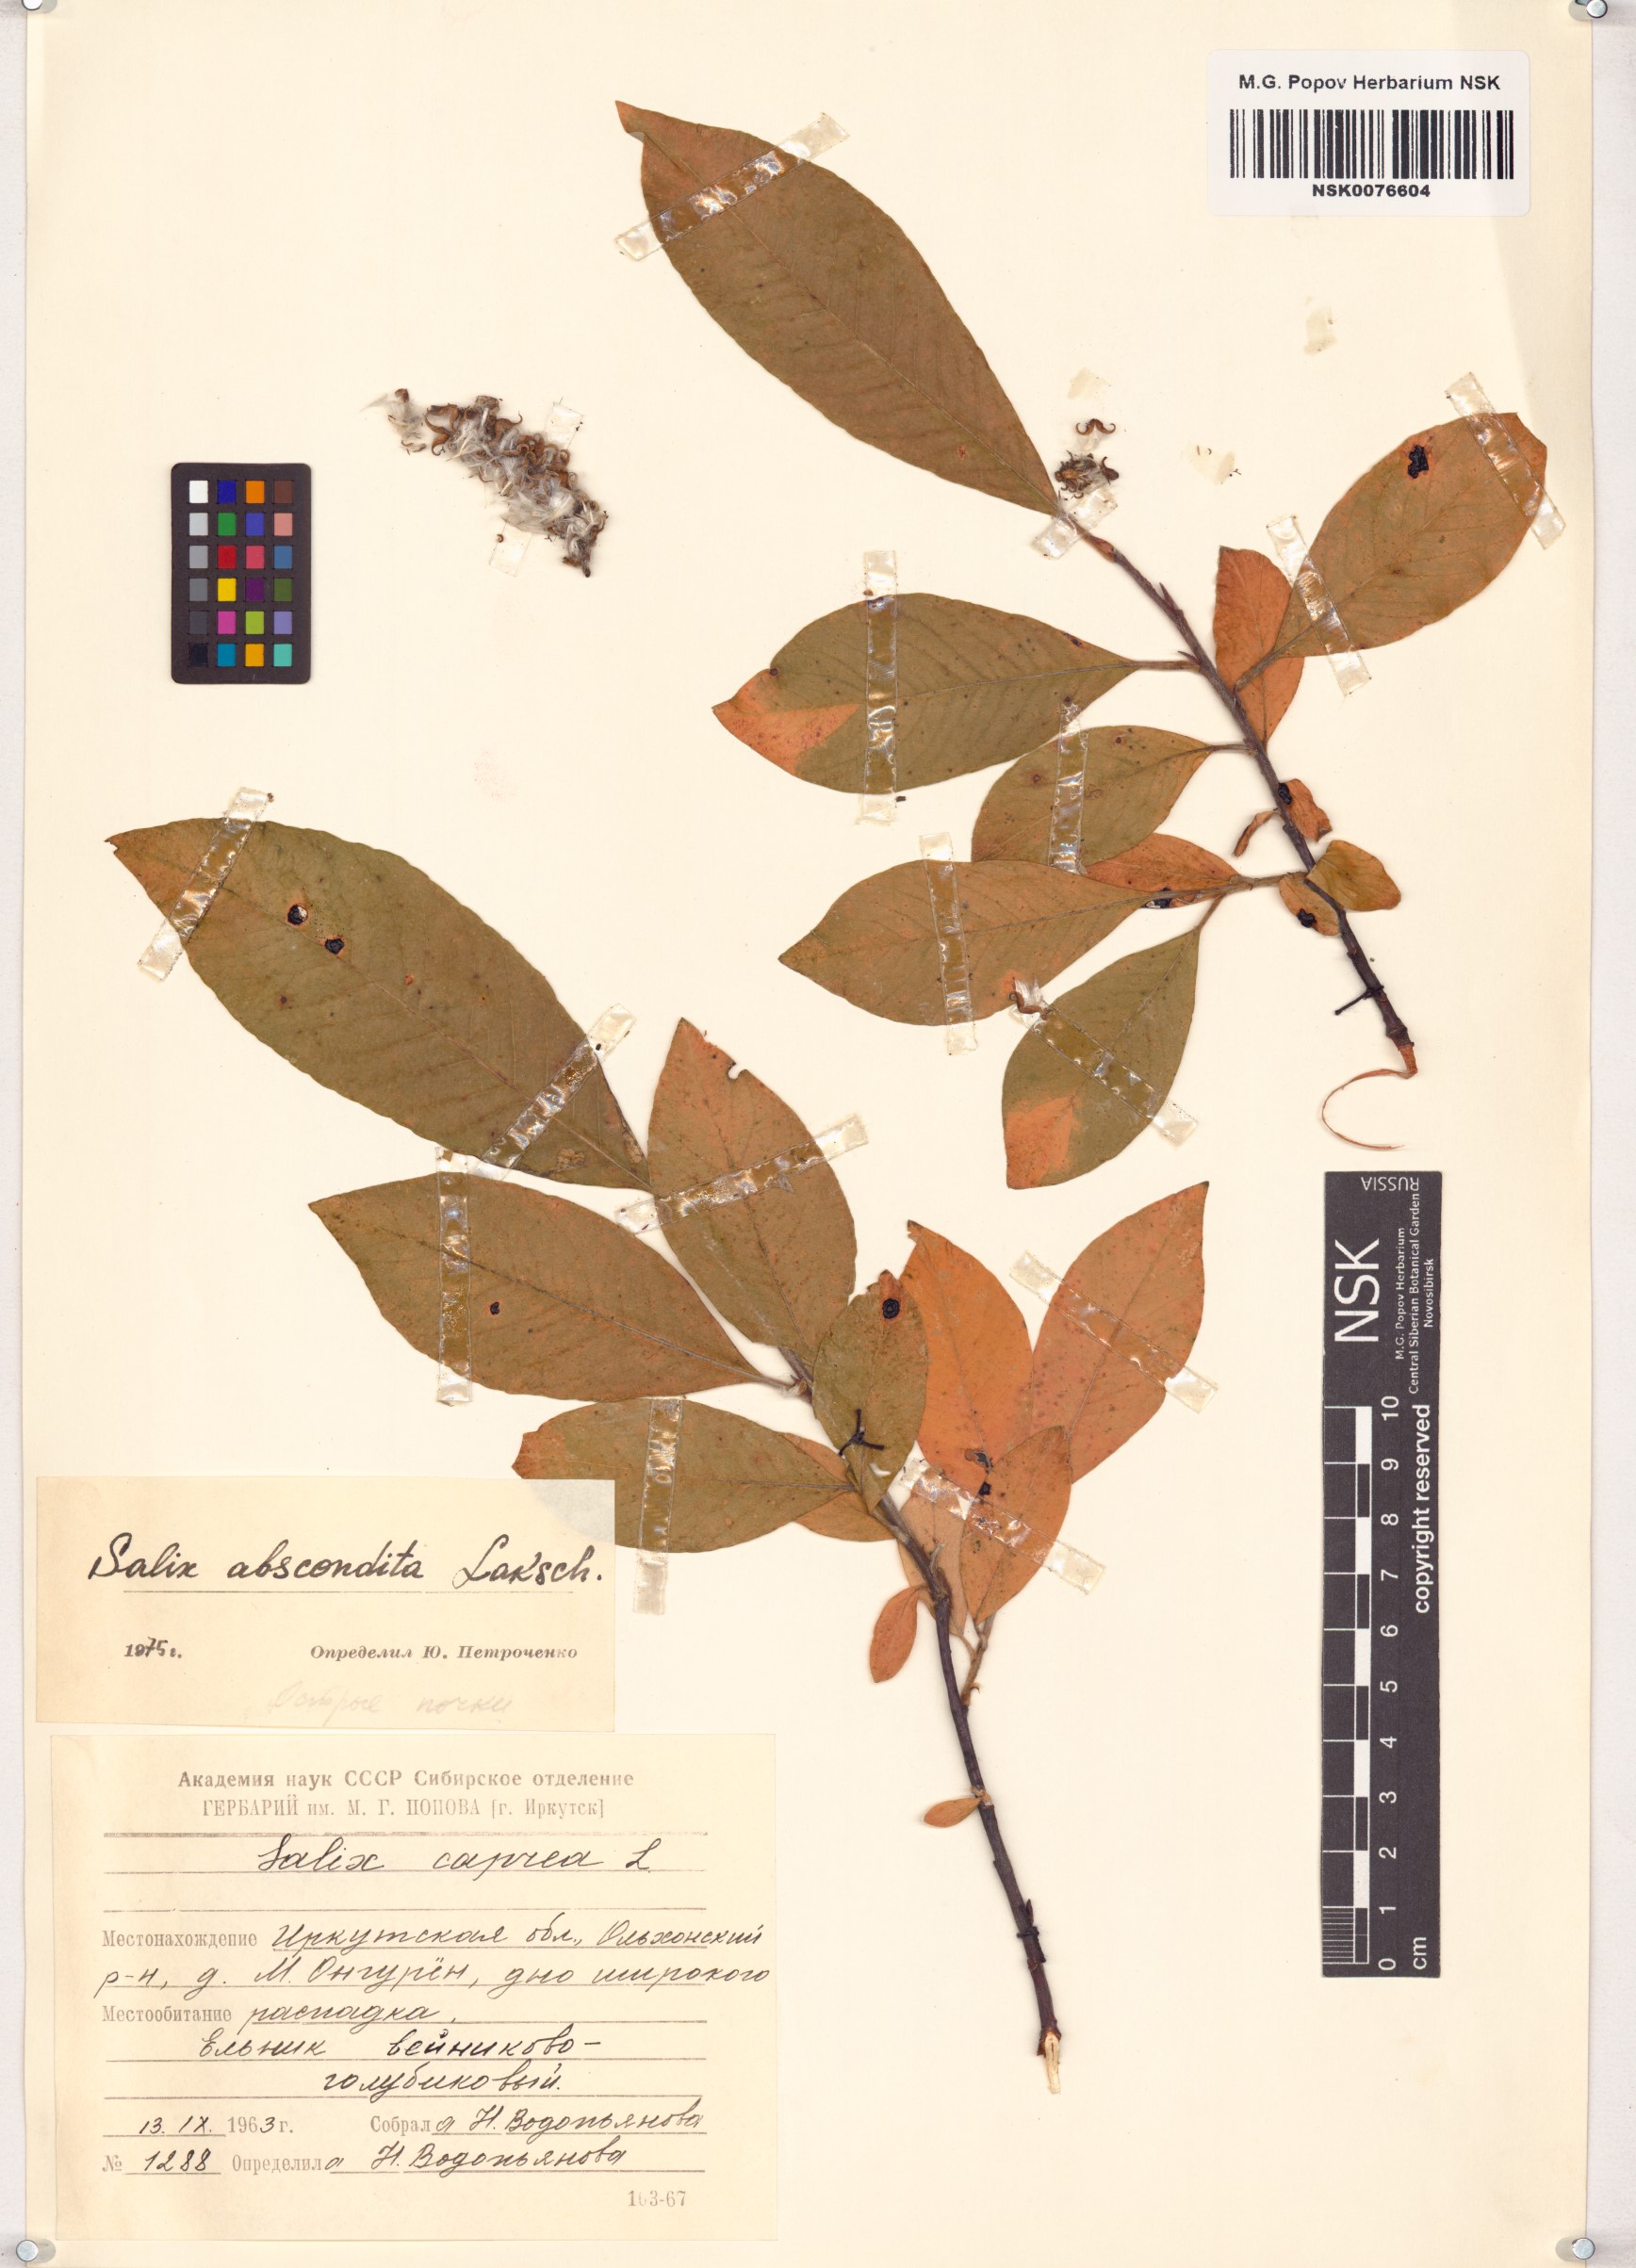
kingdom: Plantae
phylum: Tracheophyta
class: Magnoliopsida
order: Malpighiales
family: Salicaceae
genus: Salix
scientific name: Salix abscondita
